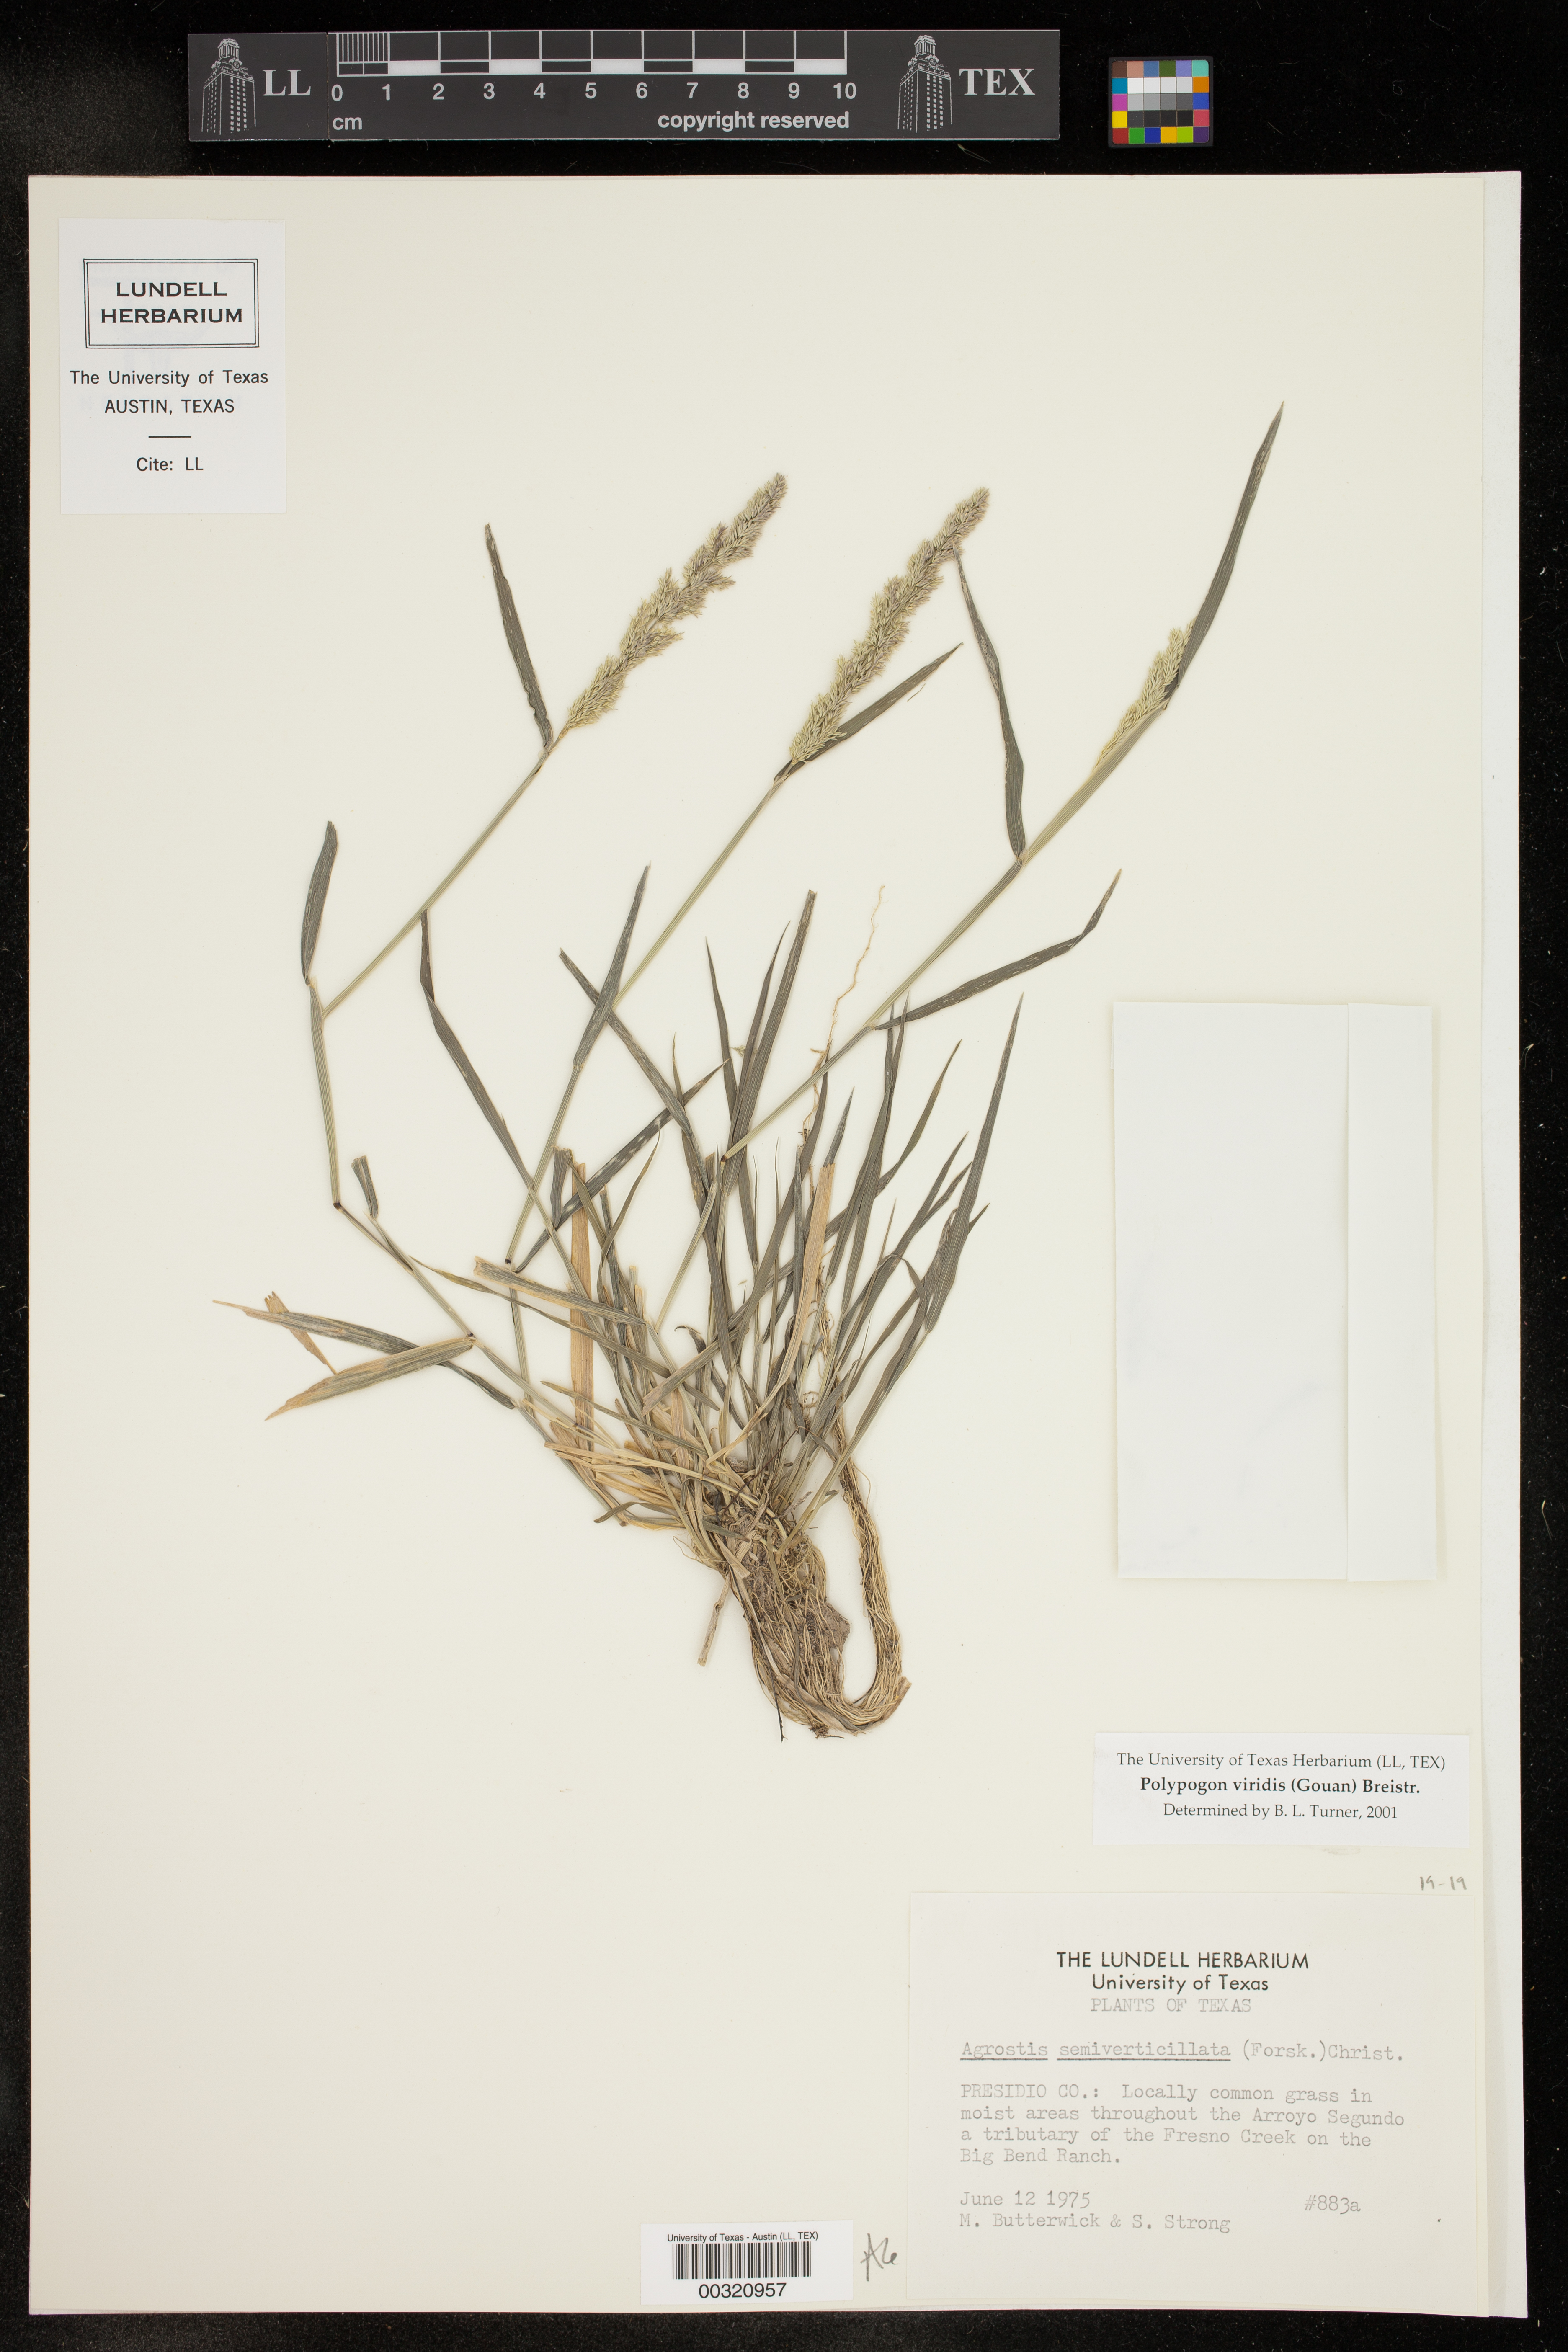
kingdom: Plantae
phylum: Tracheophyta
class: Liliopsida
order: Poales
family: Poaceae
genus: Polypogon
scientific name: Polypogon viridis
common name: Water bent
